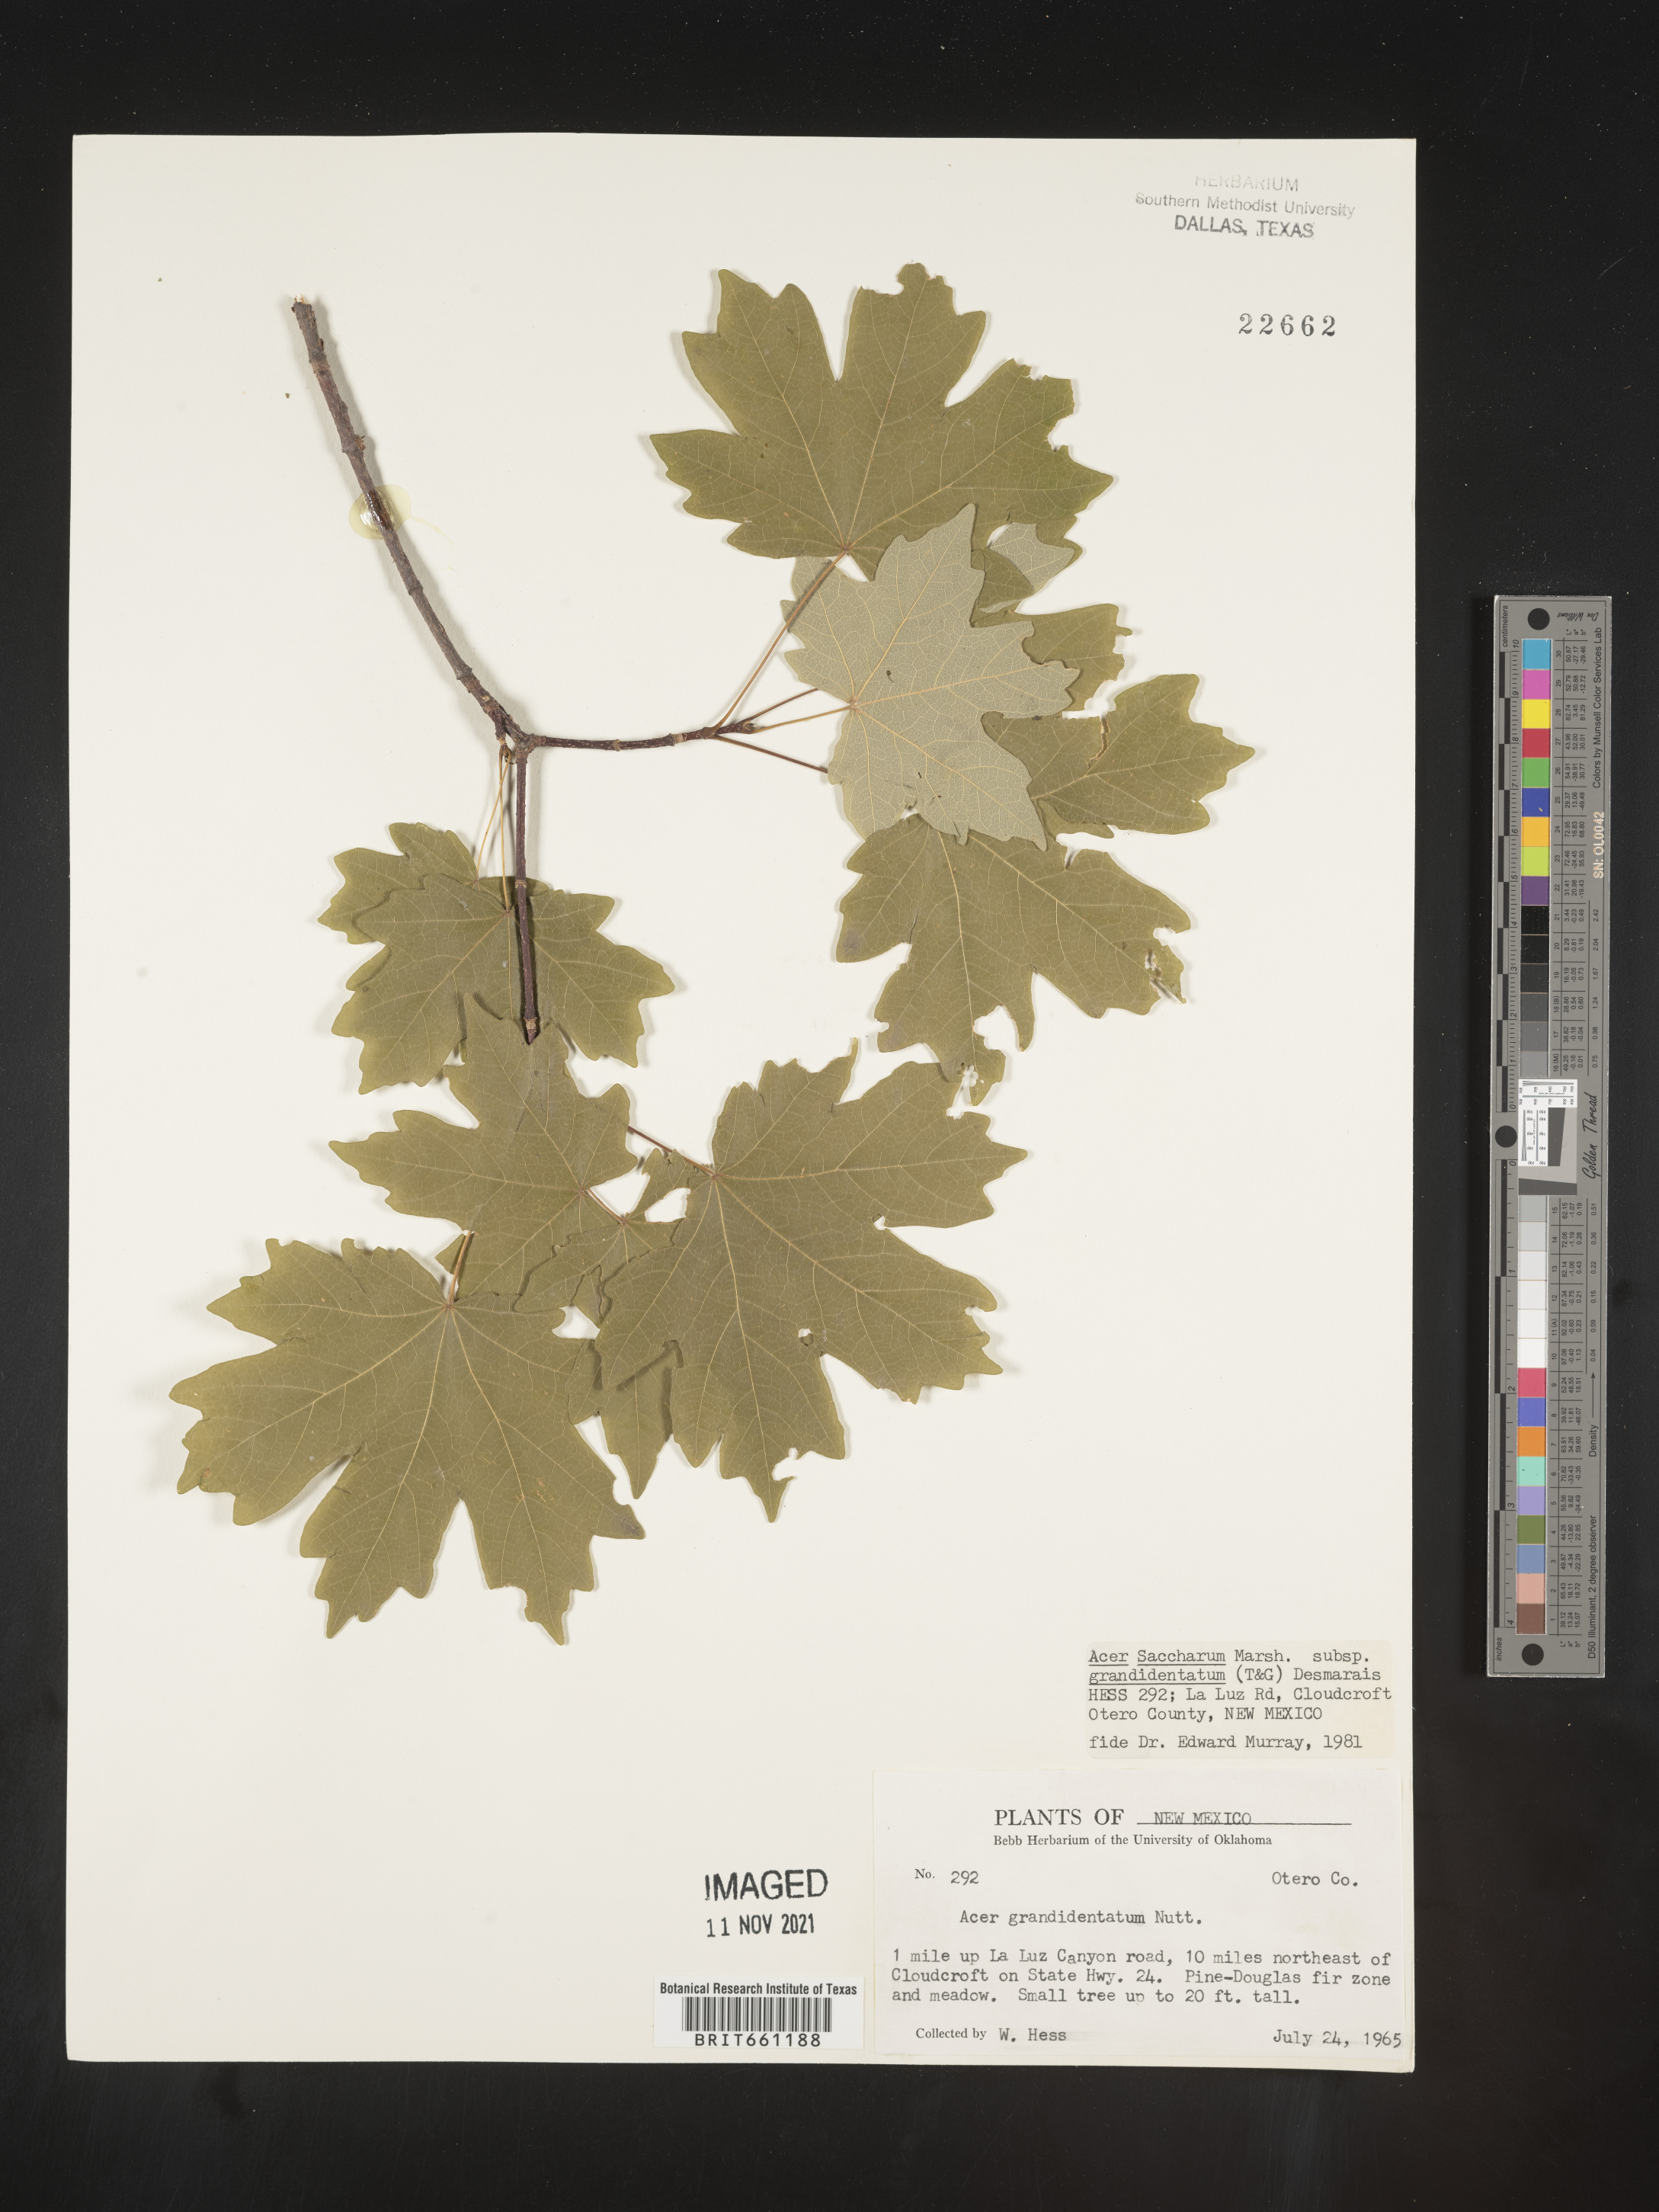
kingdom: Plantae
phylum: Tracheophyta
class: Magnoliopsida
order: Sapindales
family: Sapindaceae
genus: Acer
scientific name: Acer grandidentatum
